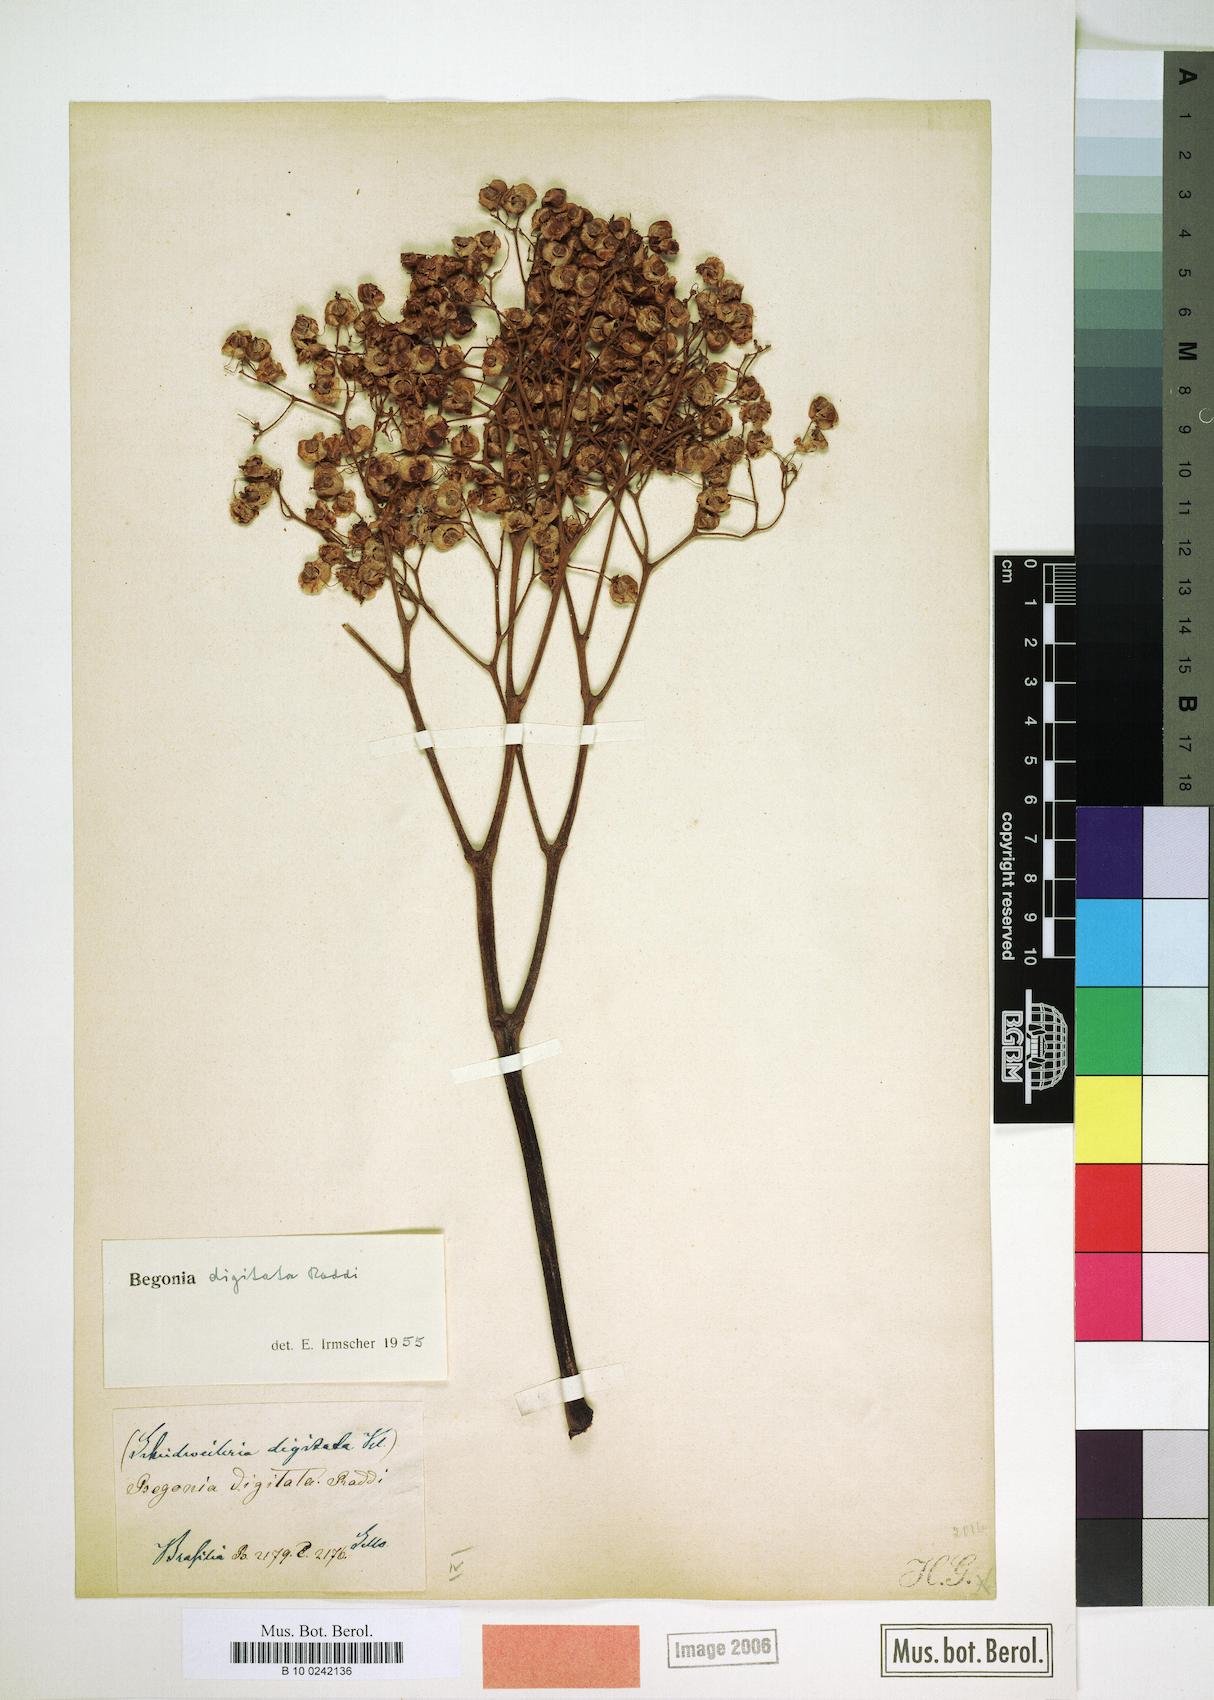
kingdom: Plantae
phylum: Tracheophyta
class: Magnoliopsida
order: Cucurbitales
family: Begoniaceae
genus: Begonia
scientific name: Begonia digitata
